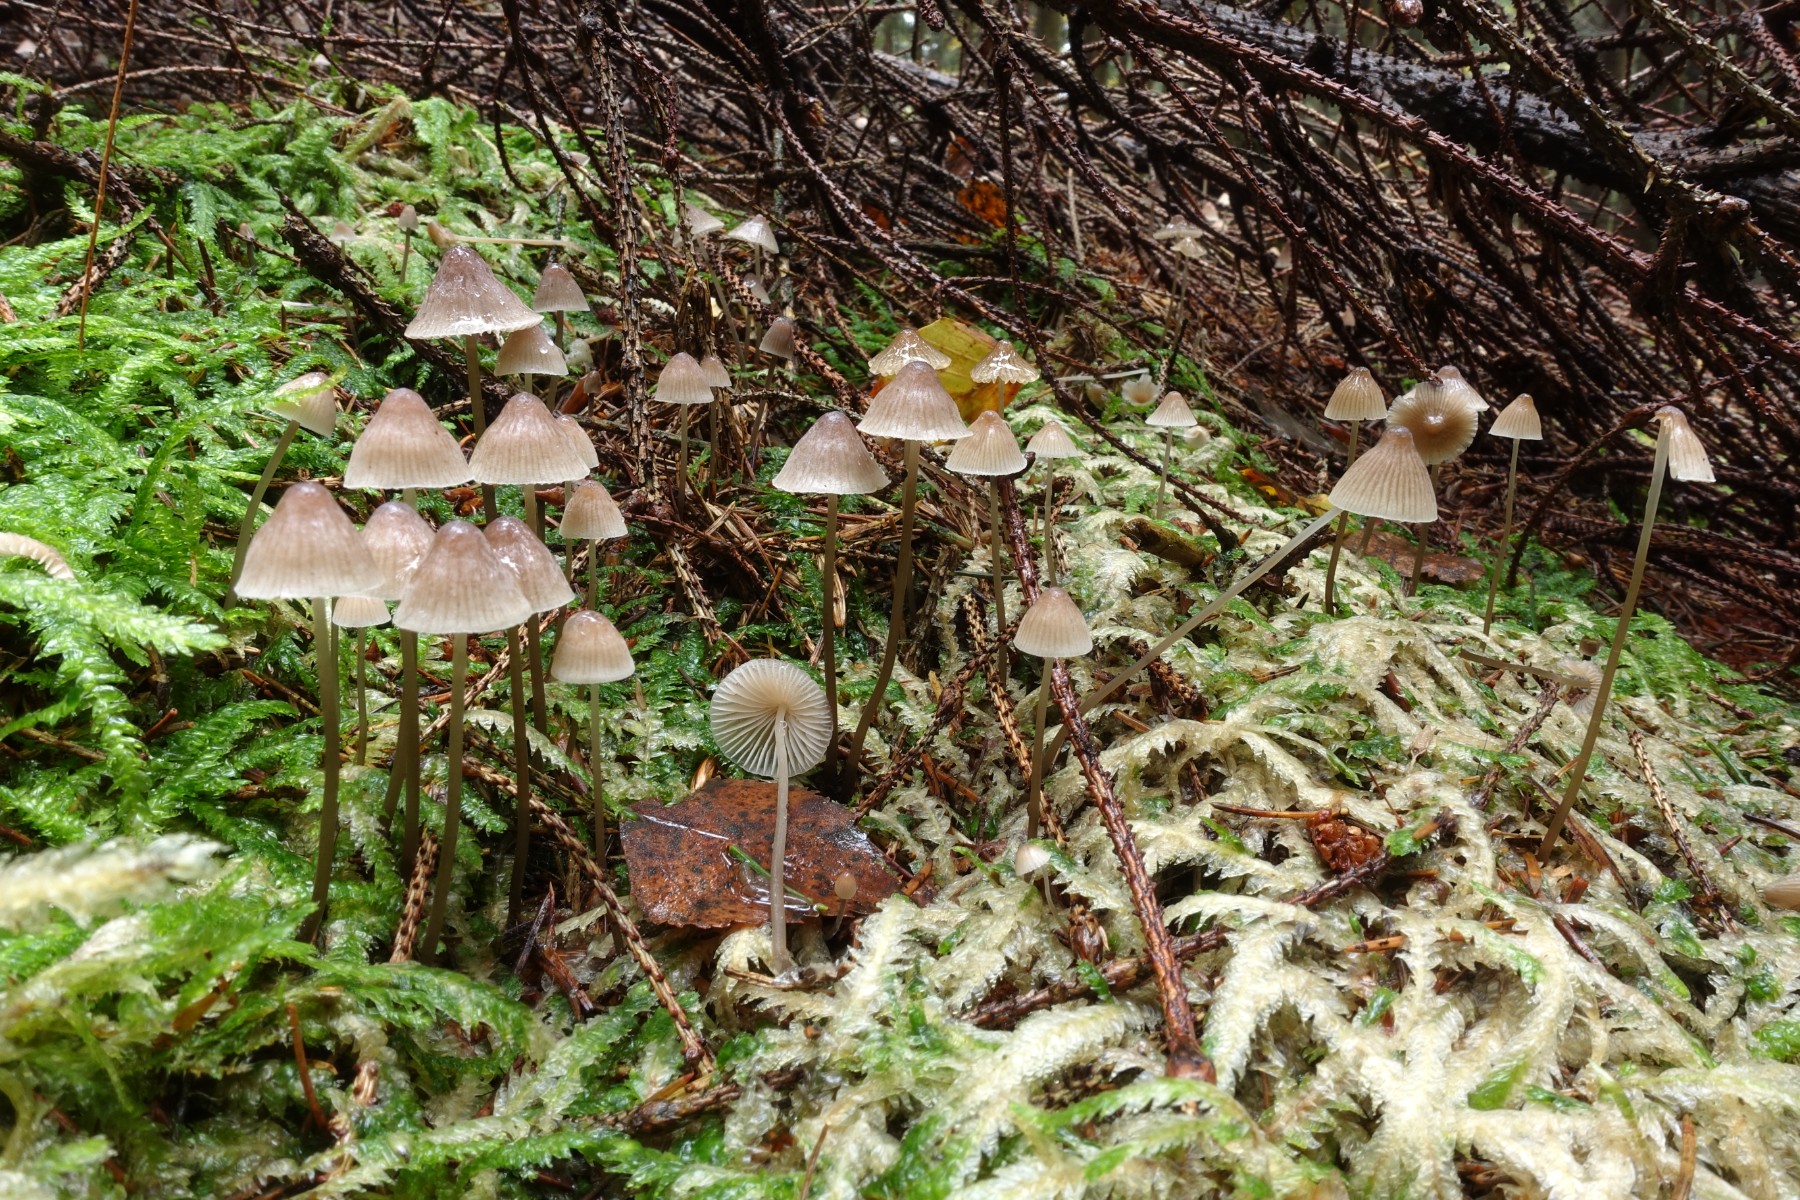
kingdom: Fungi
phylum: Basidiomycota
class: Agaricomycetes
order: Agaricales
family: Mycenaceae
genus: Mycena
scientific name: Mycena metata
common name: rødlig huesvamp
